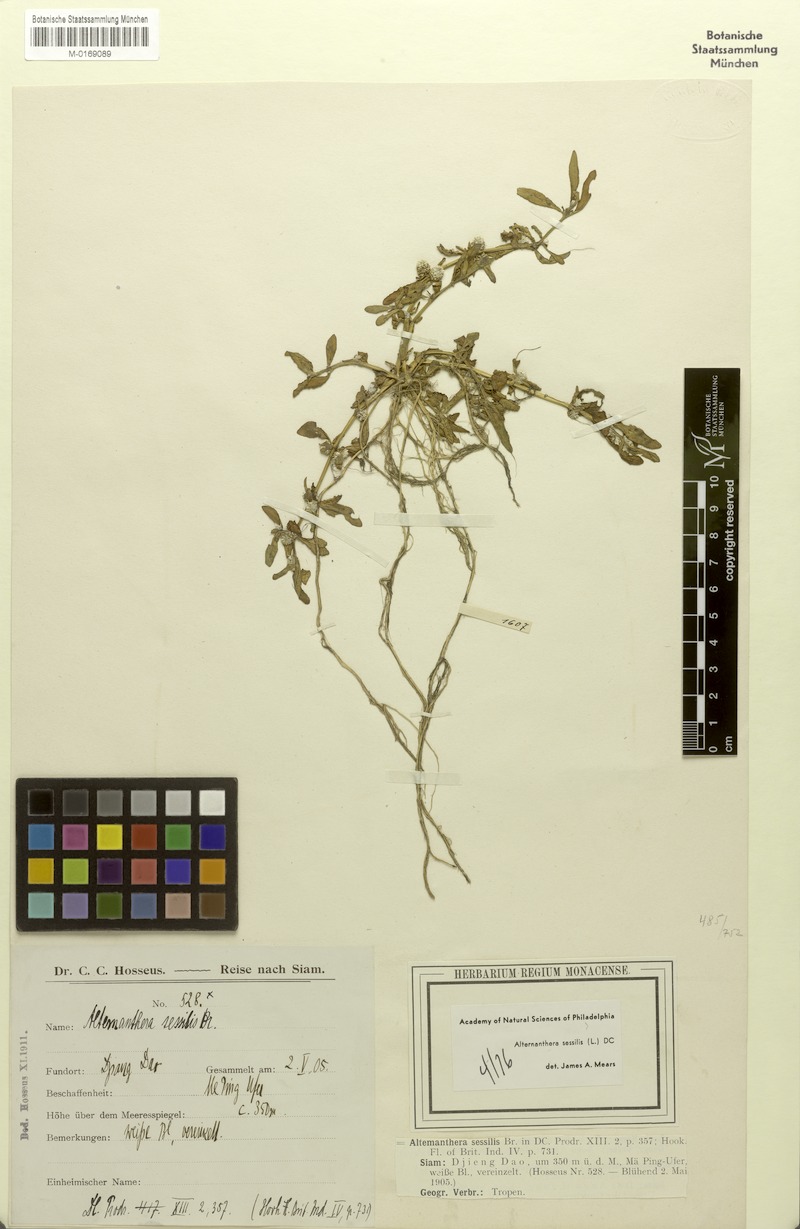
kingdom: Plantae
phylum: Tracheophyta
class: Magnoliopsida
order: Caryophyllales
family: Amaranthaceae
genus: Alternanthera
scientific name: Alternanthera sessilis
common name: Sessile joyweed
